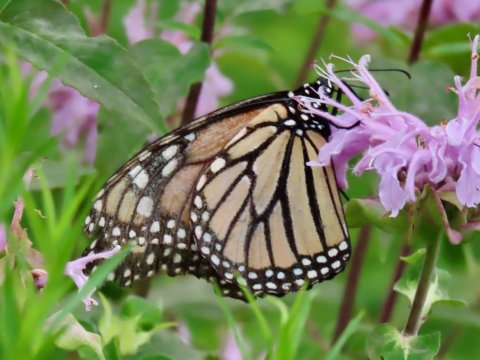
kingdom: Animalia
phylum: Arthropoda
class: Insecta
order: Lepidoptera
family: Nymphalidae
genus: Danaus
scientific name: Danaus plexippus
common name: Monarch
